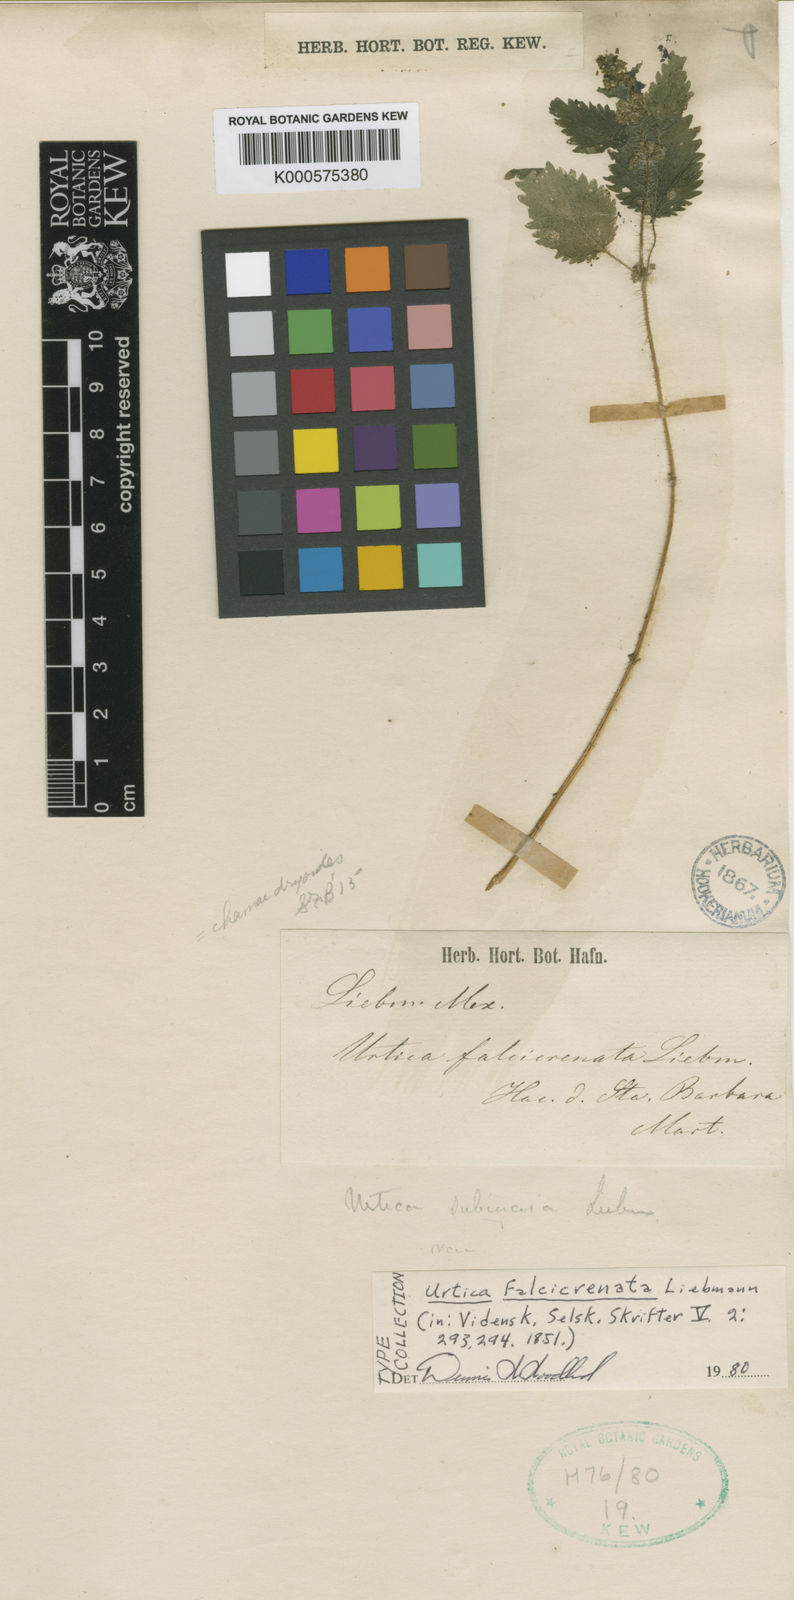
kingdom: Plantae
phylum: Tracheophyta
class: Magnoliopsida
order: Rosales
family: Urticaceae
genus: Urtica
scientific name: Urtica portosanctana
